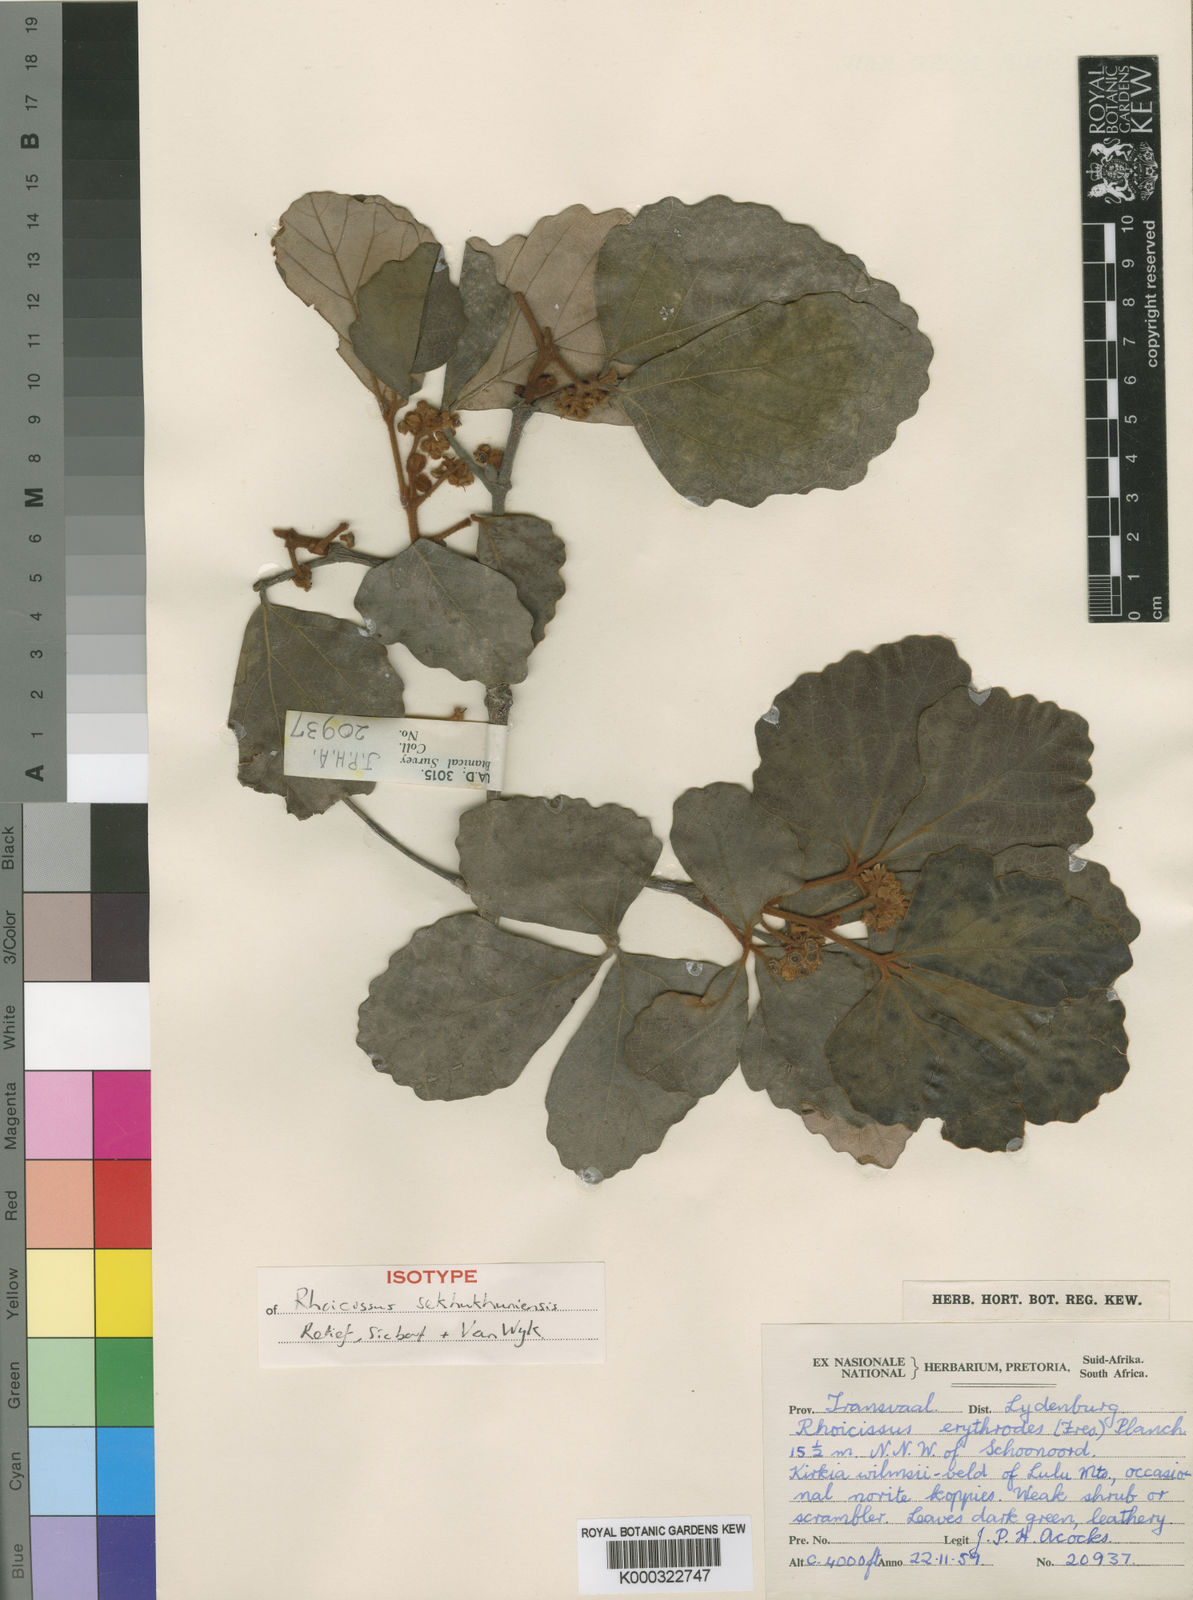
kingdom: Plantae
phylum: Tracheophyta
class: Magnoliopsida
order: Vitales
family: Vitaceae
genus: Rhoicissus
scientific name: Rhoicissus sekhukhuniensis
